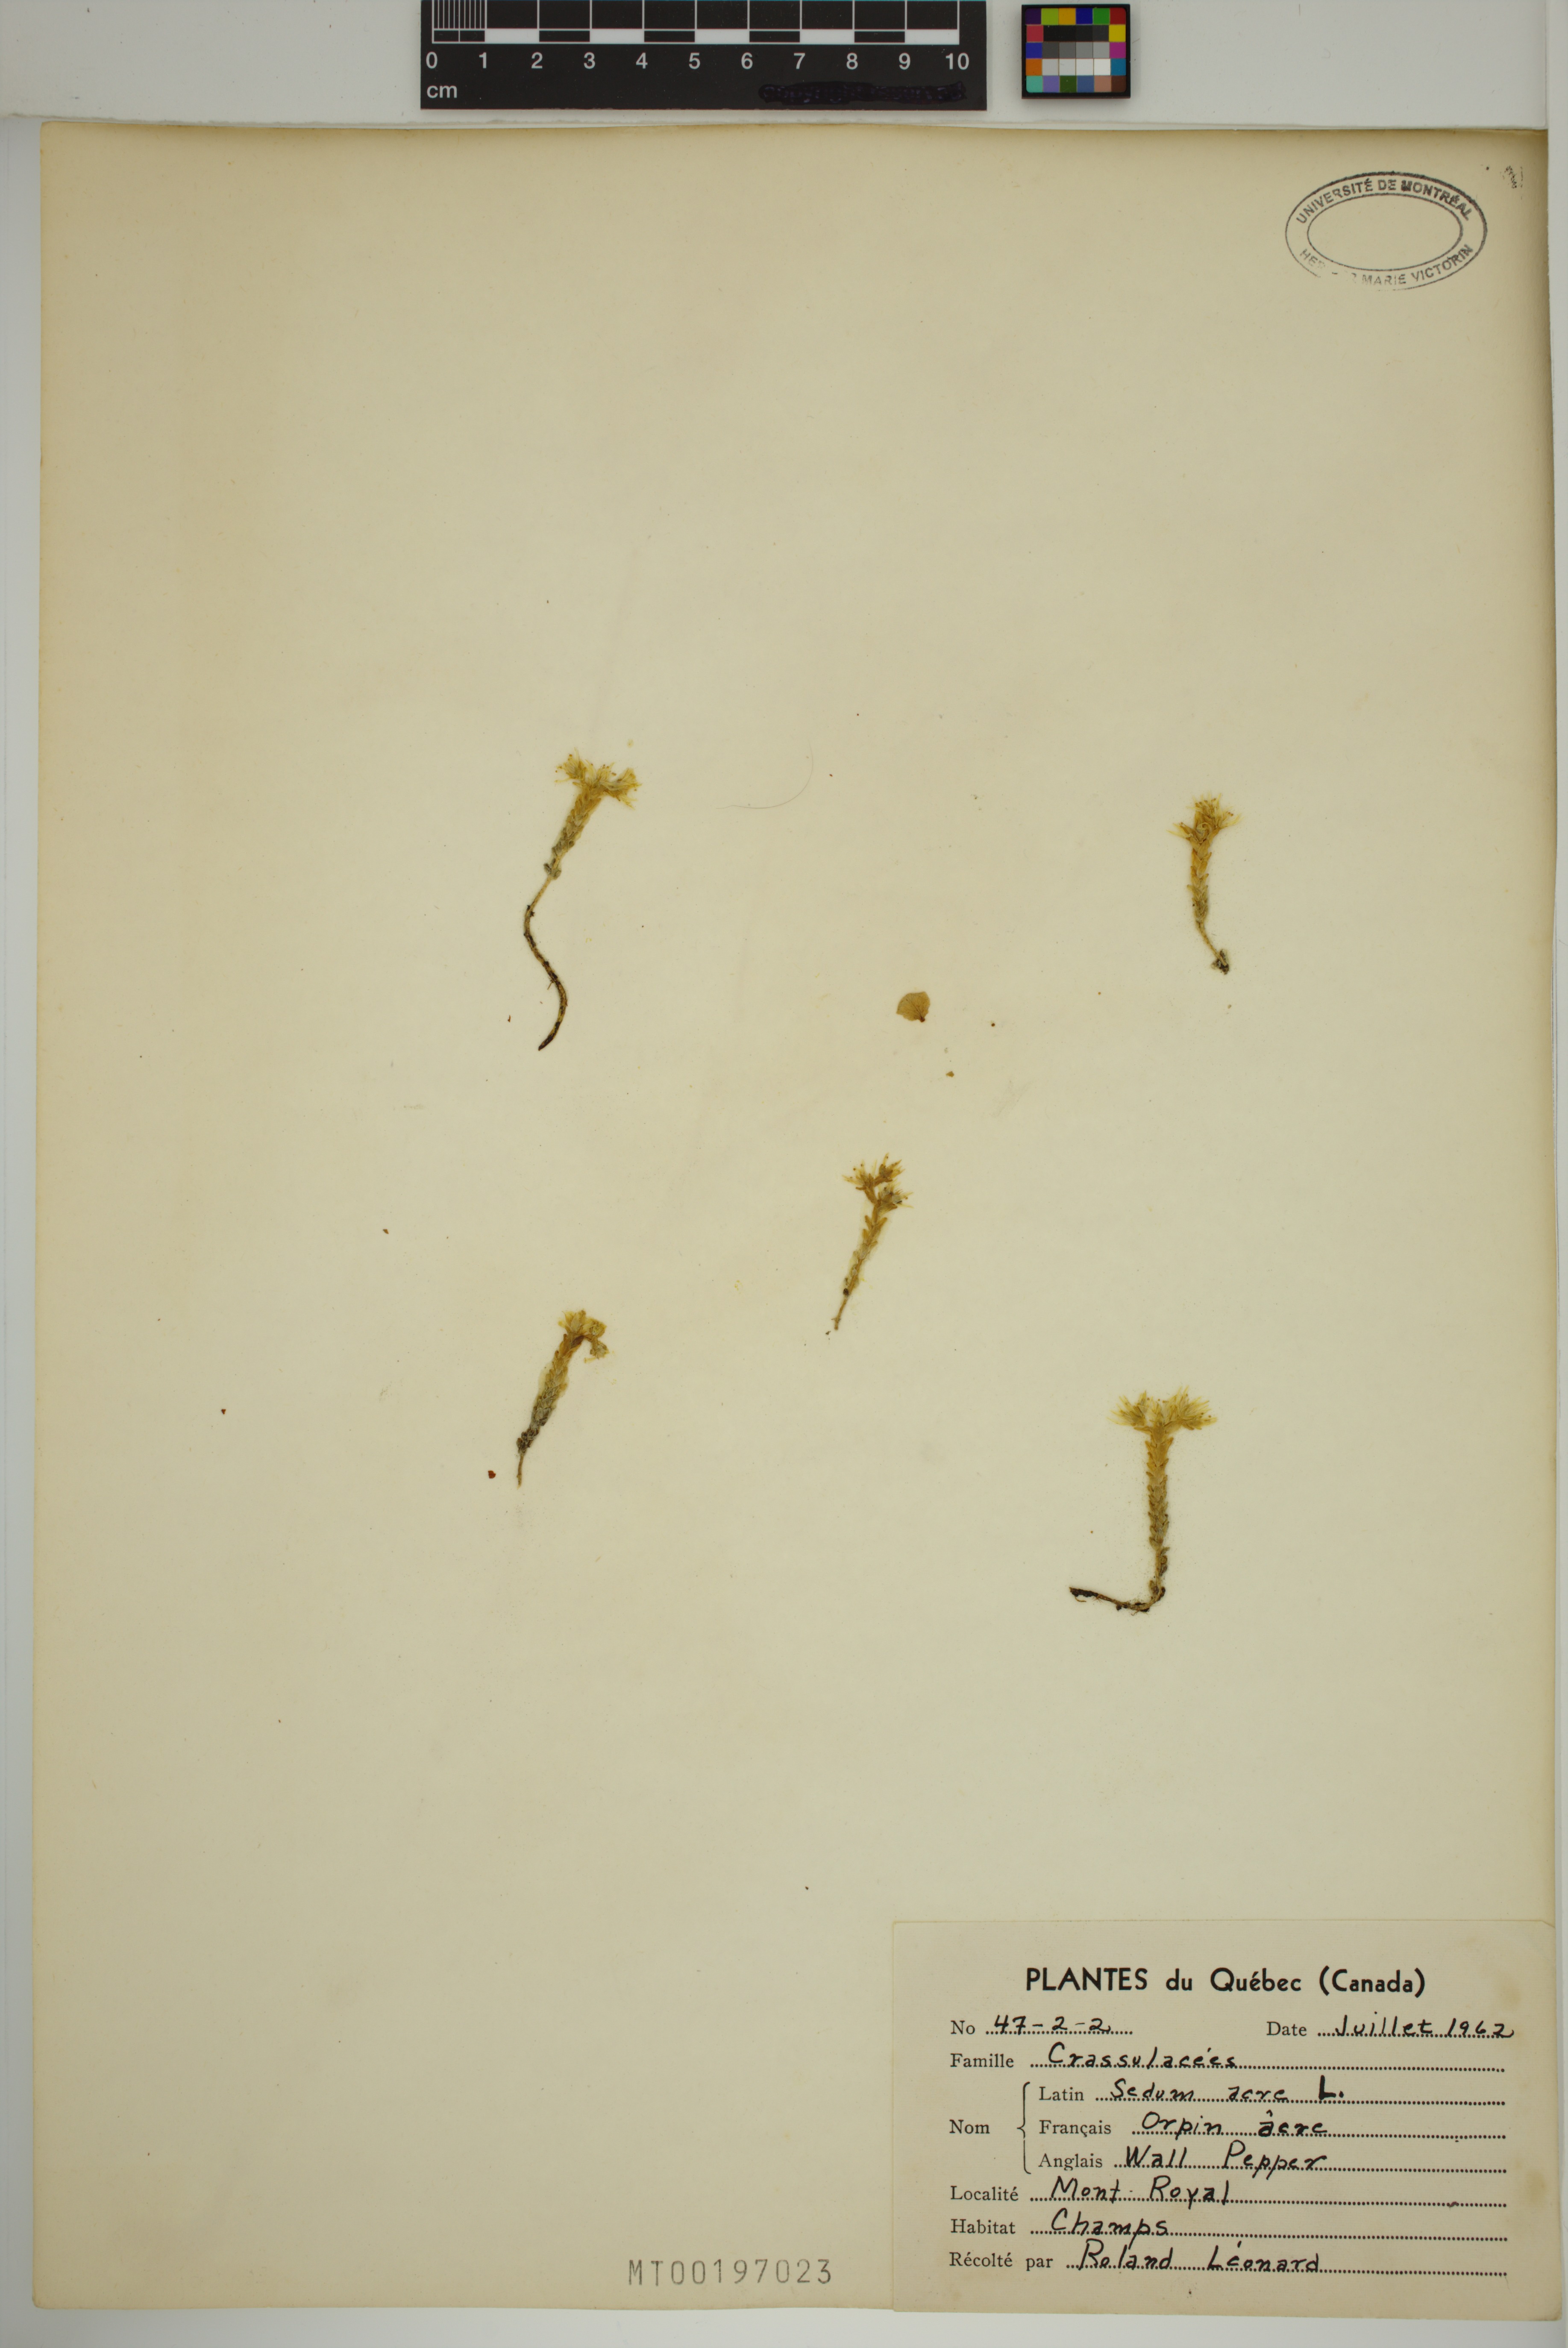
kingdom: Plantae
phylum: Tracheophyta
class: Magnoliopsida
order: Saxifragales
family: Crassulaceae
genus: Sedum
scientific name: Sedum acre
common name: Biting stonecrop
